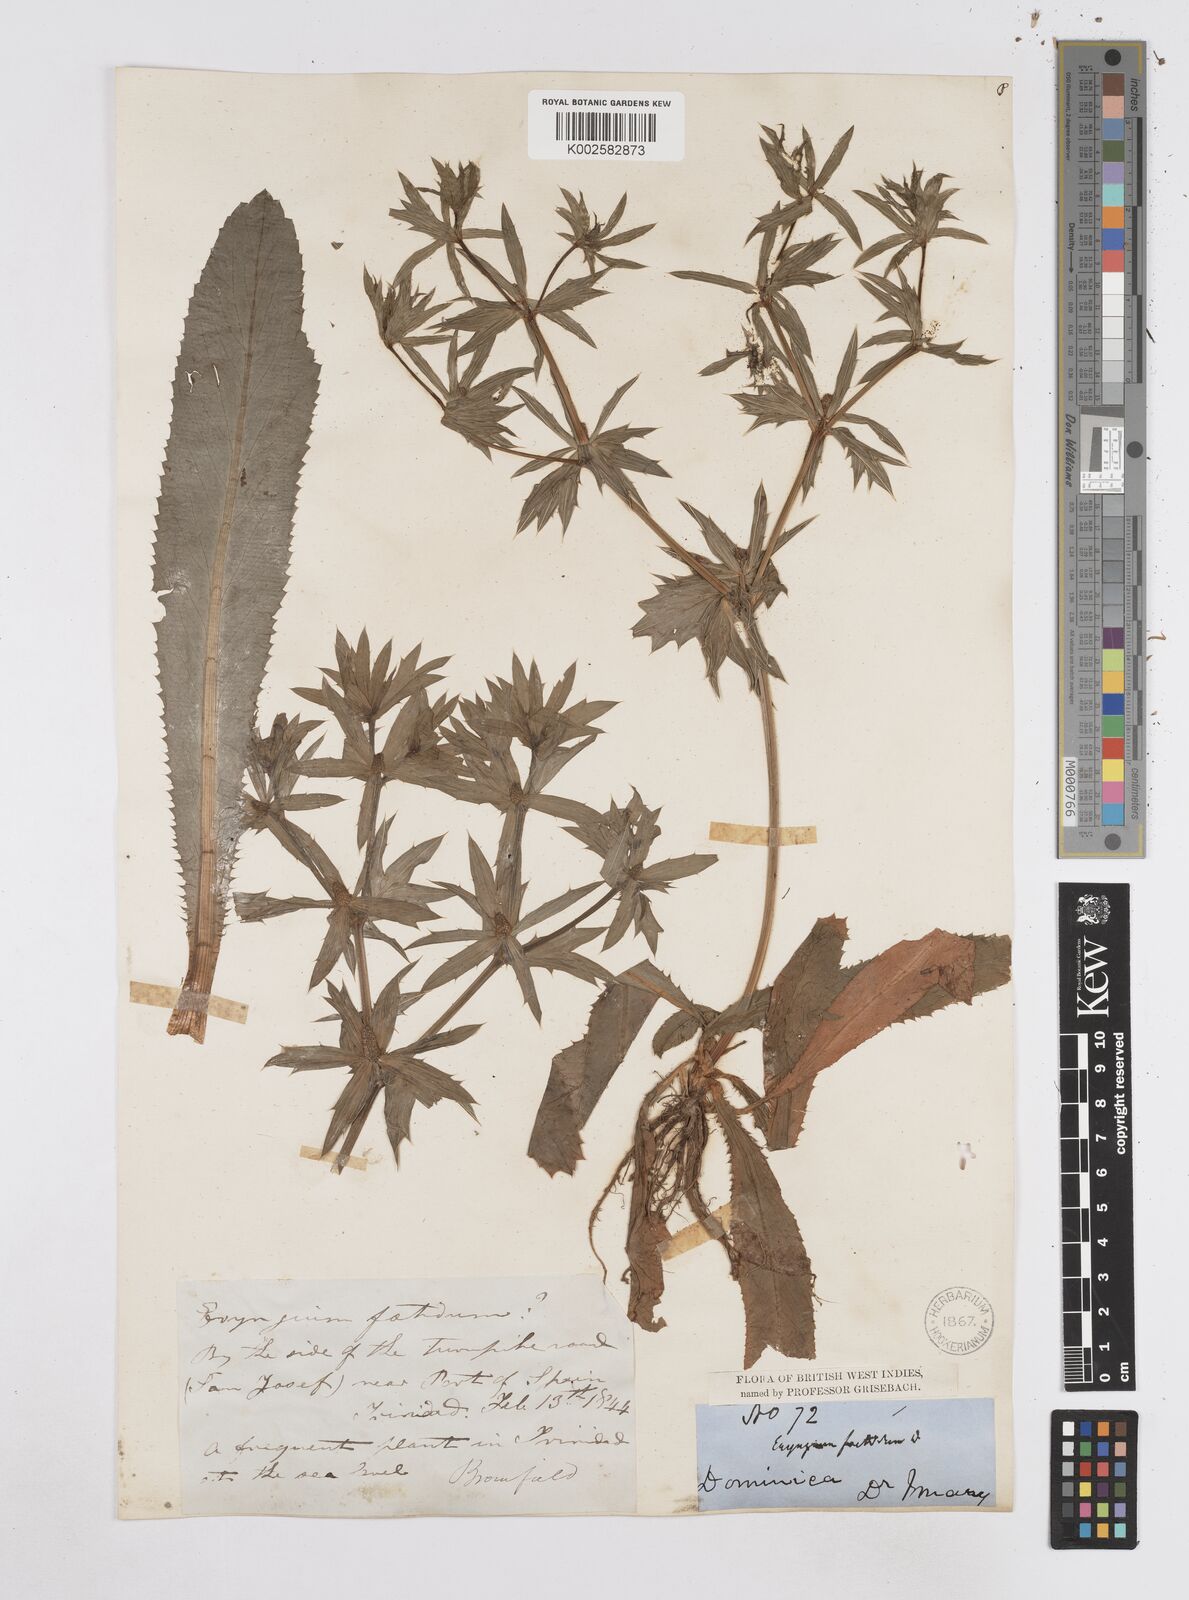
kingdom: Plantae
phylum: Tracheophyta
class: Magnoliopsida
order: Apiales
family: Apiaceae
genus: Eryngium
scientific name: Eryngium foetidum
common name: Fitweed
